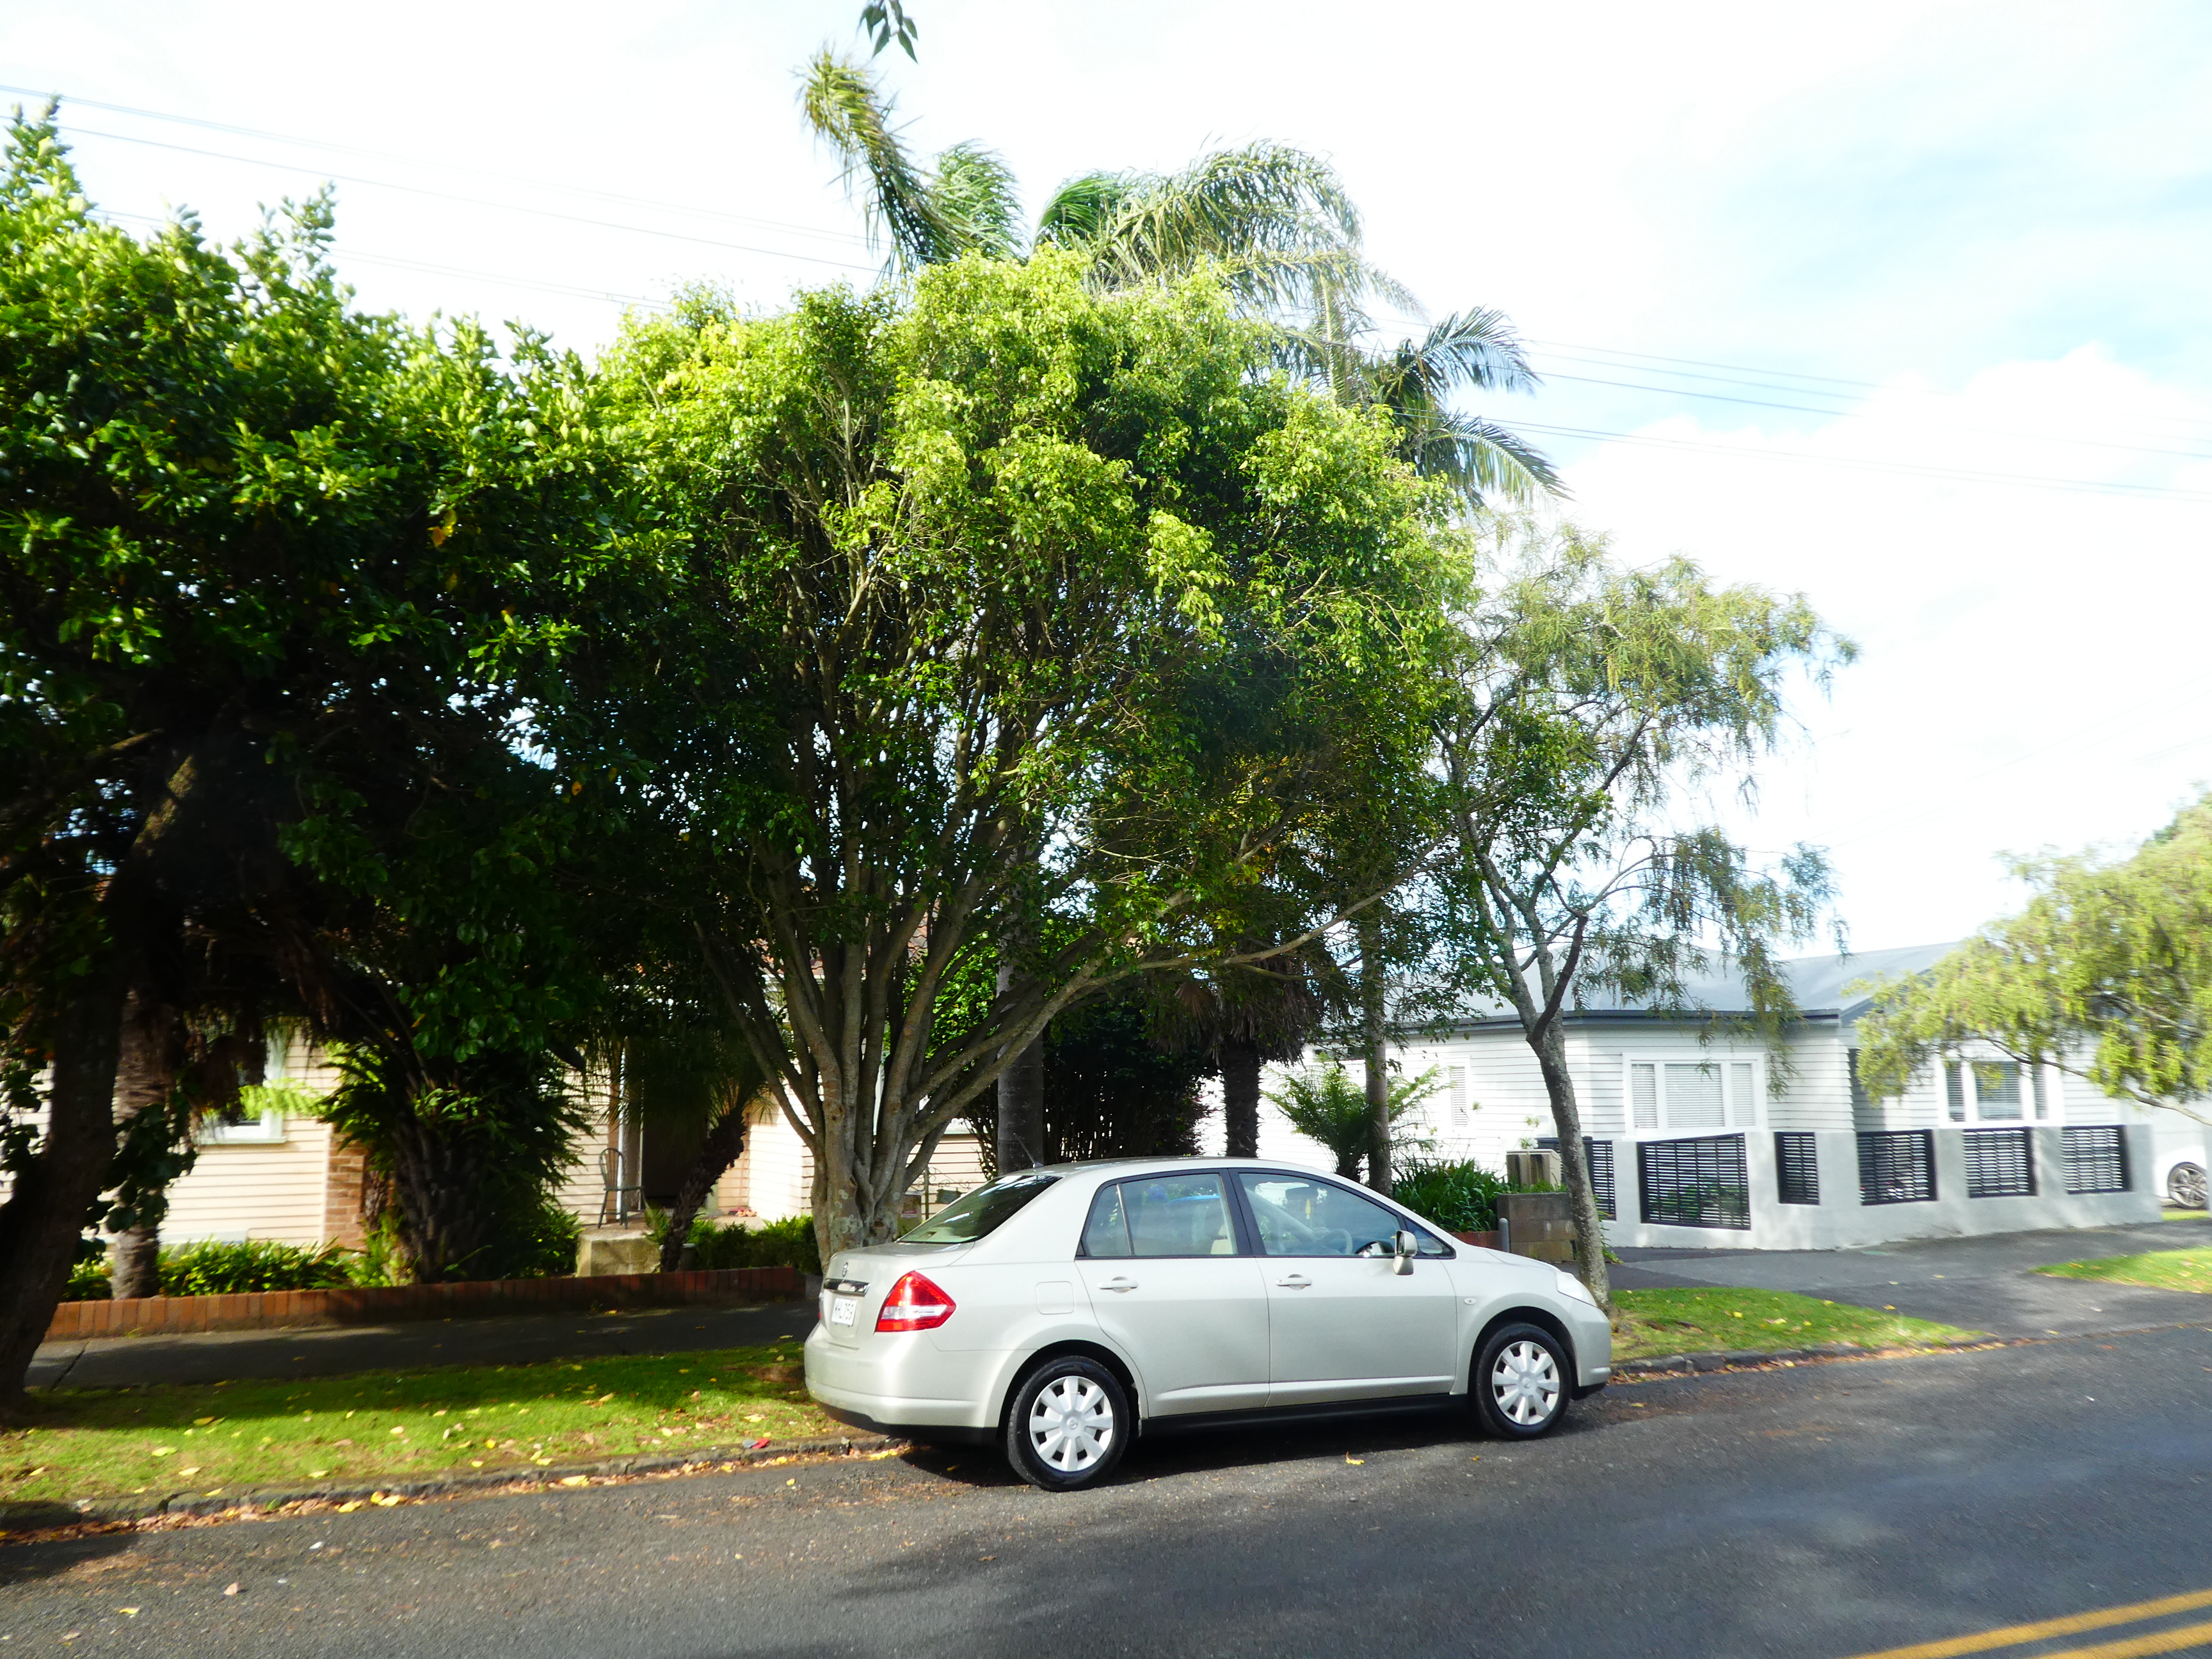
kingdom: Plantae
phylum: Tracheophyta
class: Magnoliopsida
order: Rosales
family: Moraceae
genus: Ficus
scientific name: Ficus benjamina
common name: Weeping fig
